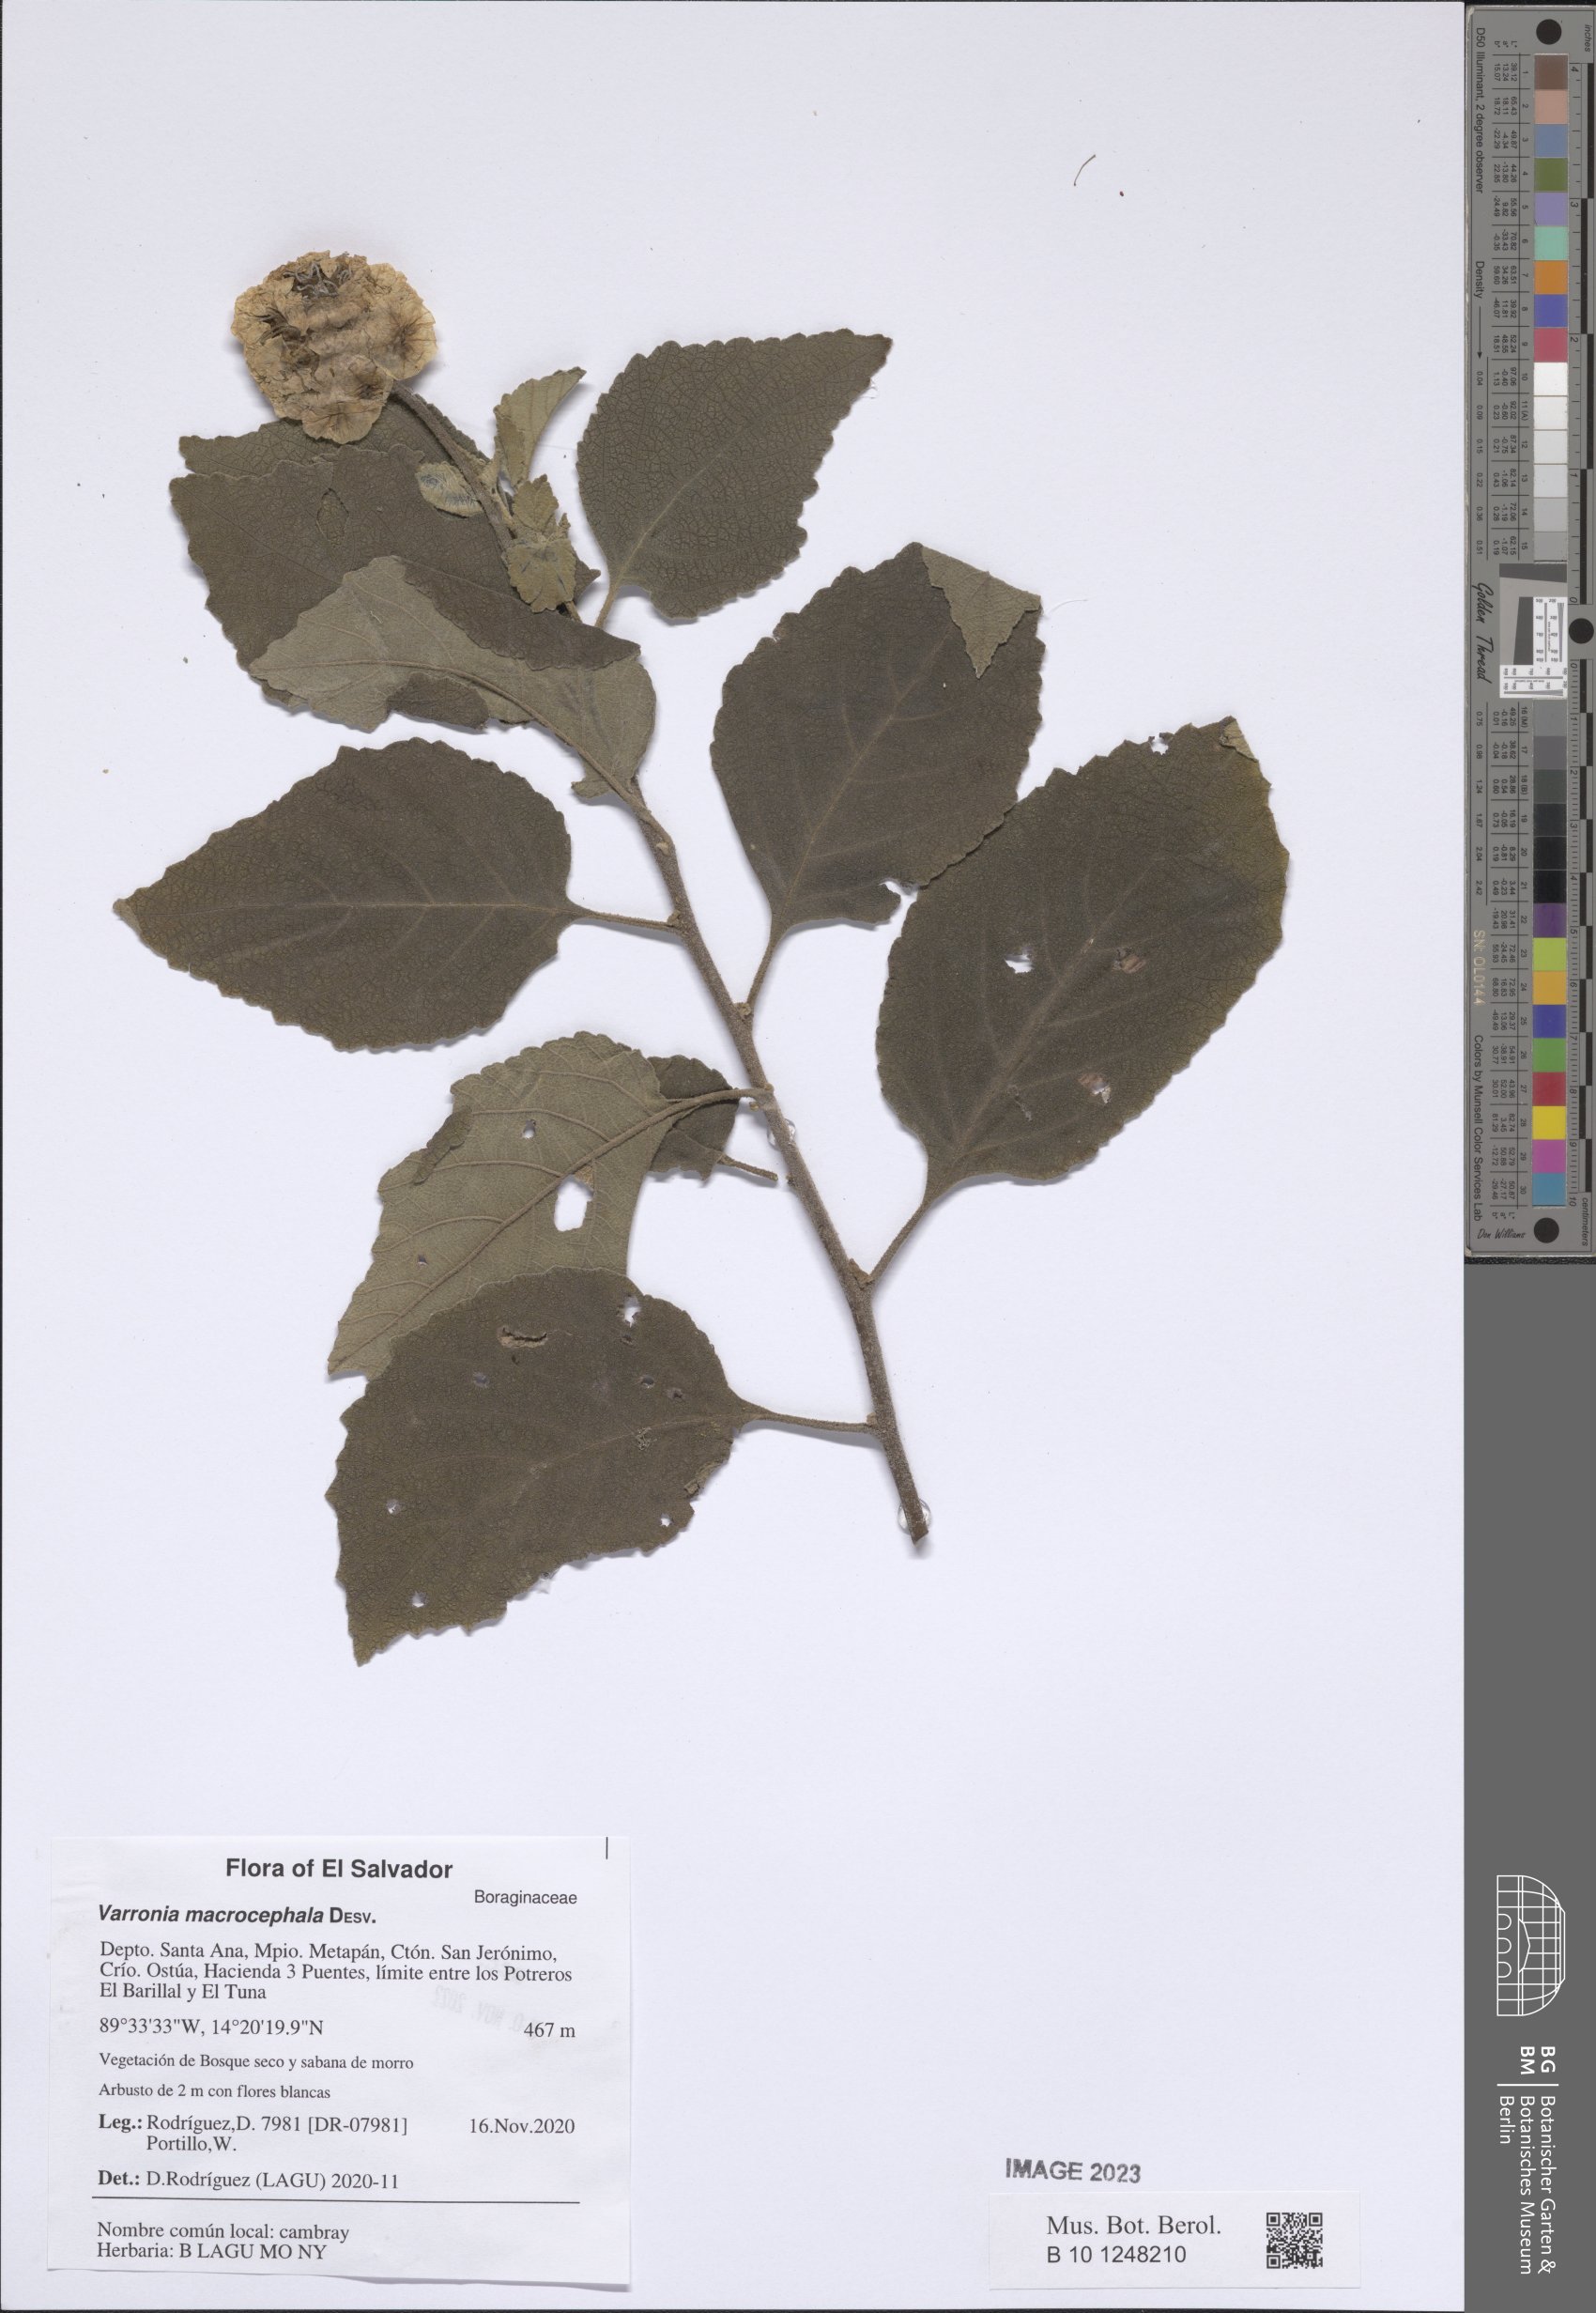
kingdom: Plantae
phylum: Tracheophyta
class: Magnoliopsida
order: Boraginales
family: Cordiaceae
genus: Varronia
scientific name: Varronia macrocephala
